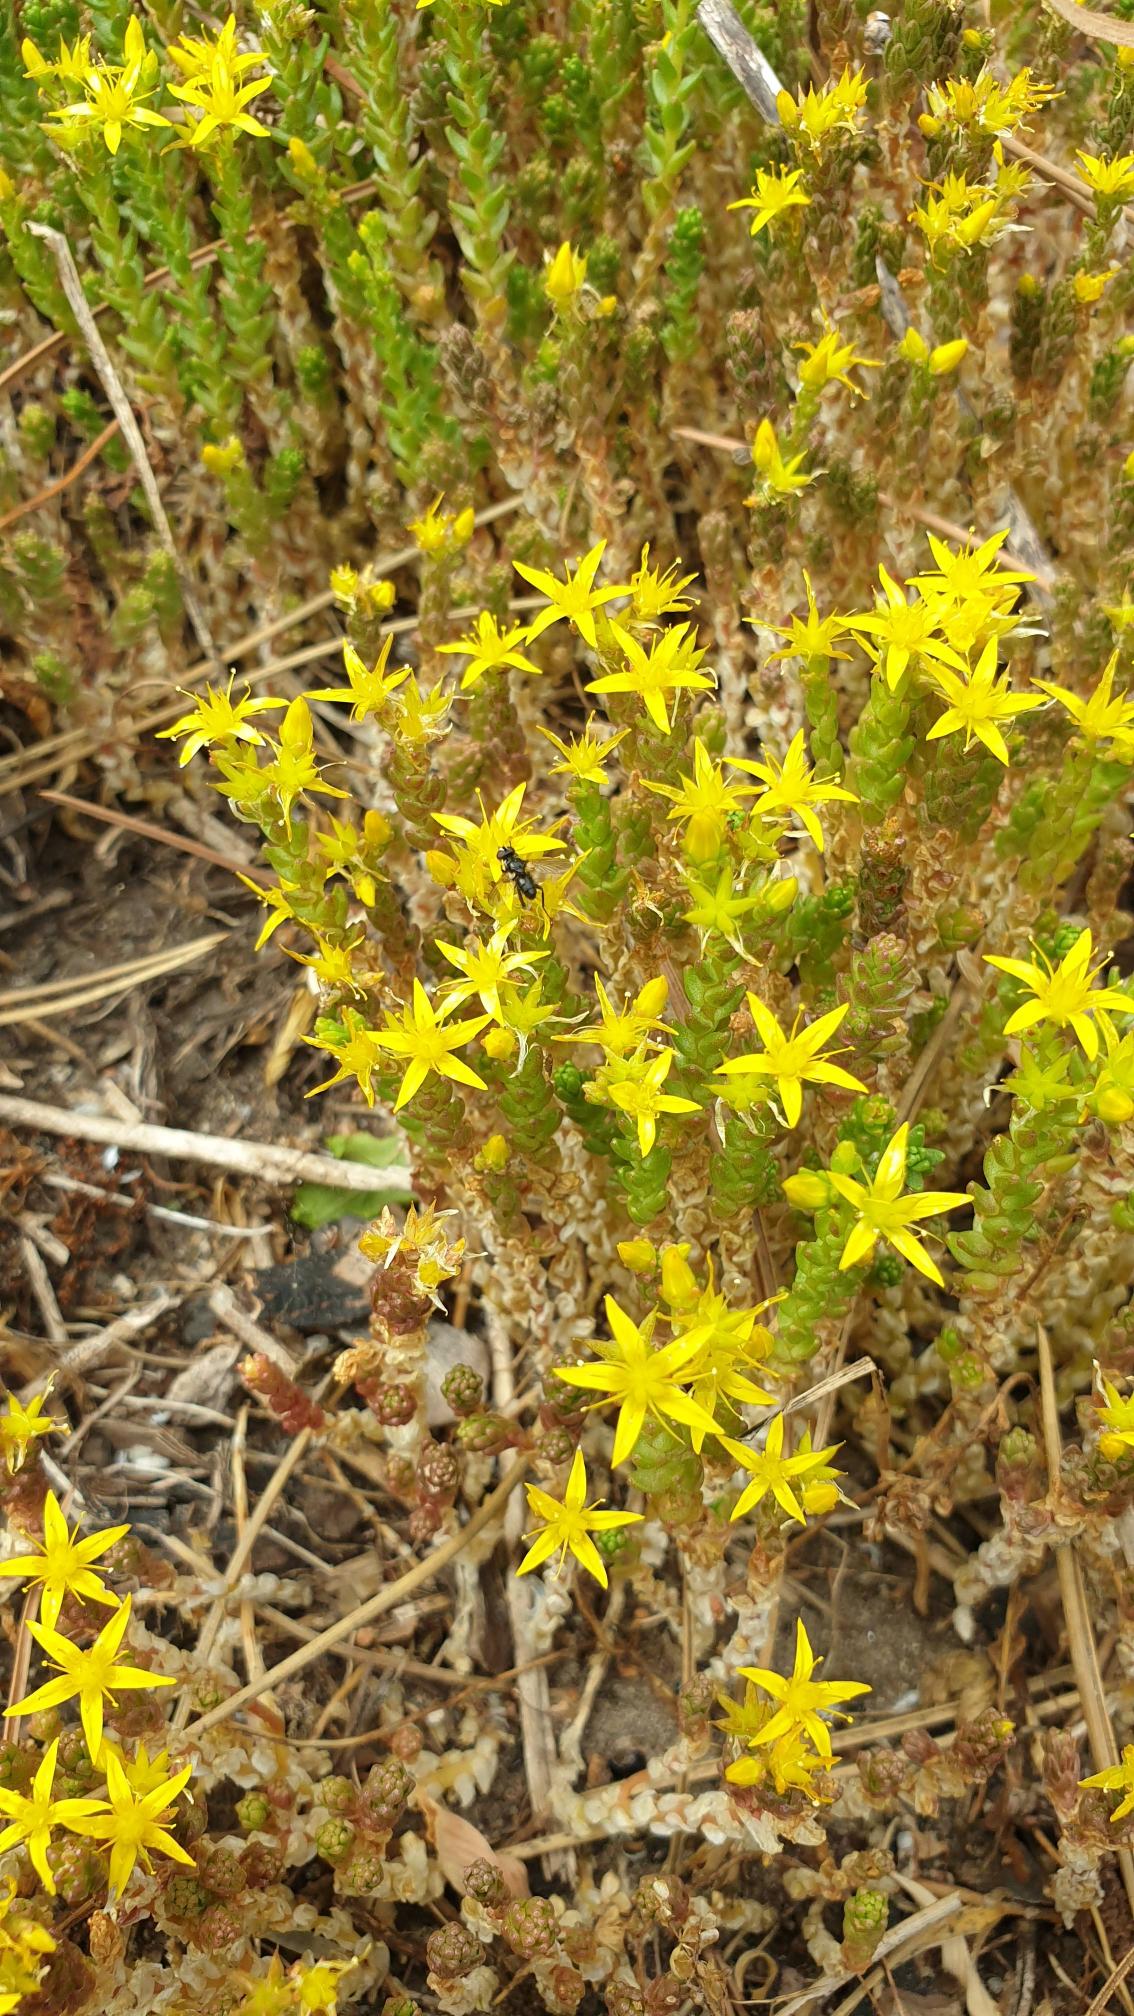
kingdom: Plantae
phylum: Tracheophyta
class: Magnoliopsida
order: Saxifragales
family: Crassulaceae
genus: Sedum
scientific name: Sedum acre
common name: Bidende stenurt
